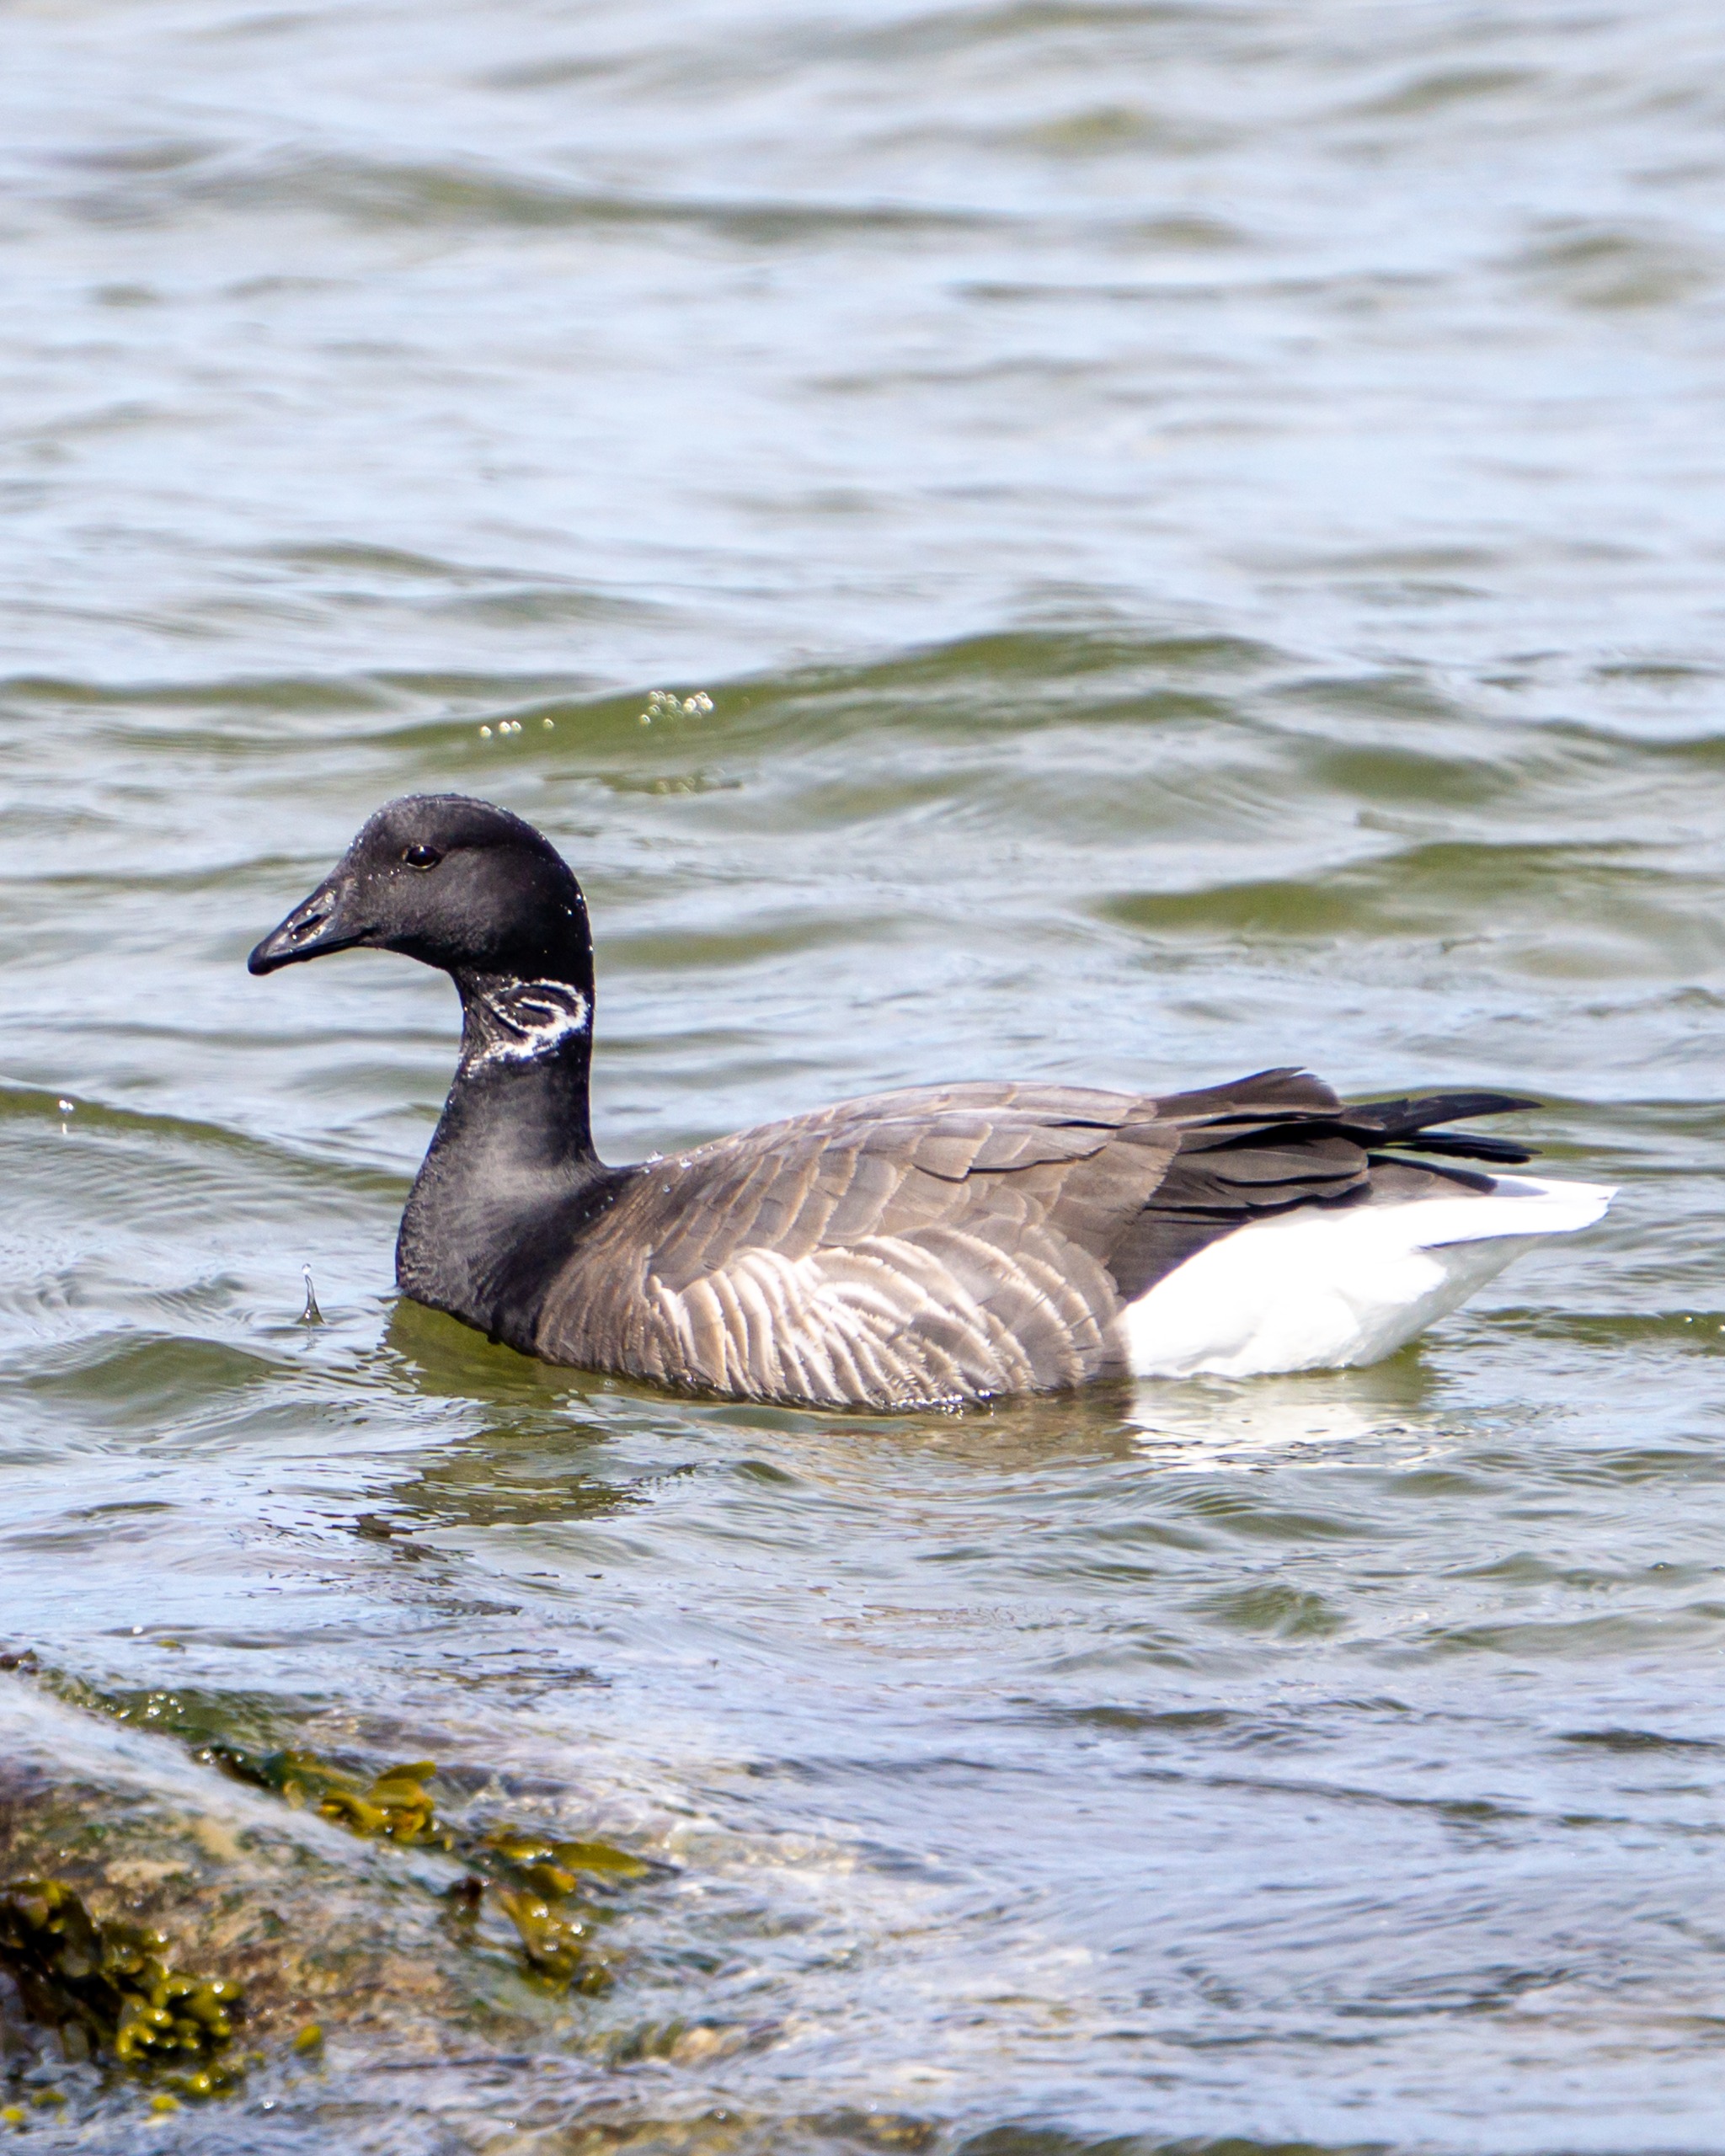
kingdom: Animalia
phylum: Chordata
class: Aves
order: Anseriformes
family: Anatidae
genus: Branta
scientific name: Branta bernicla
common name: Knortegås
